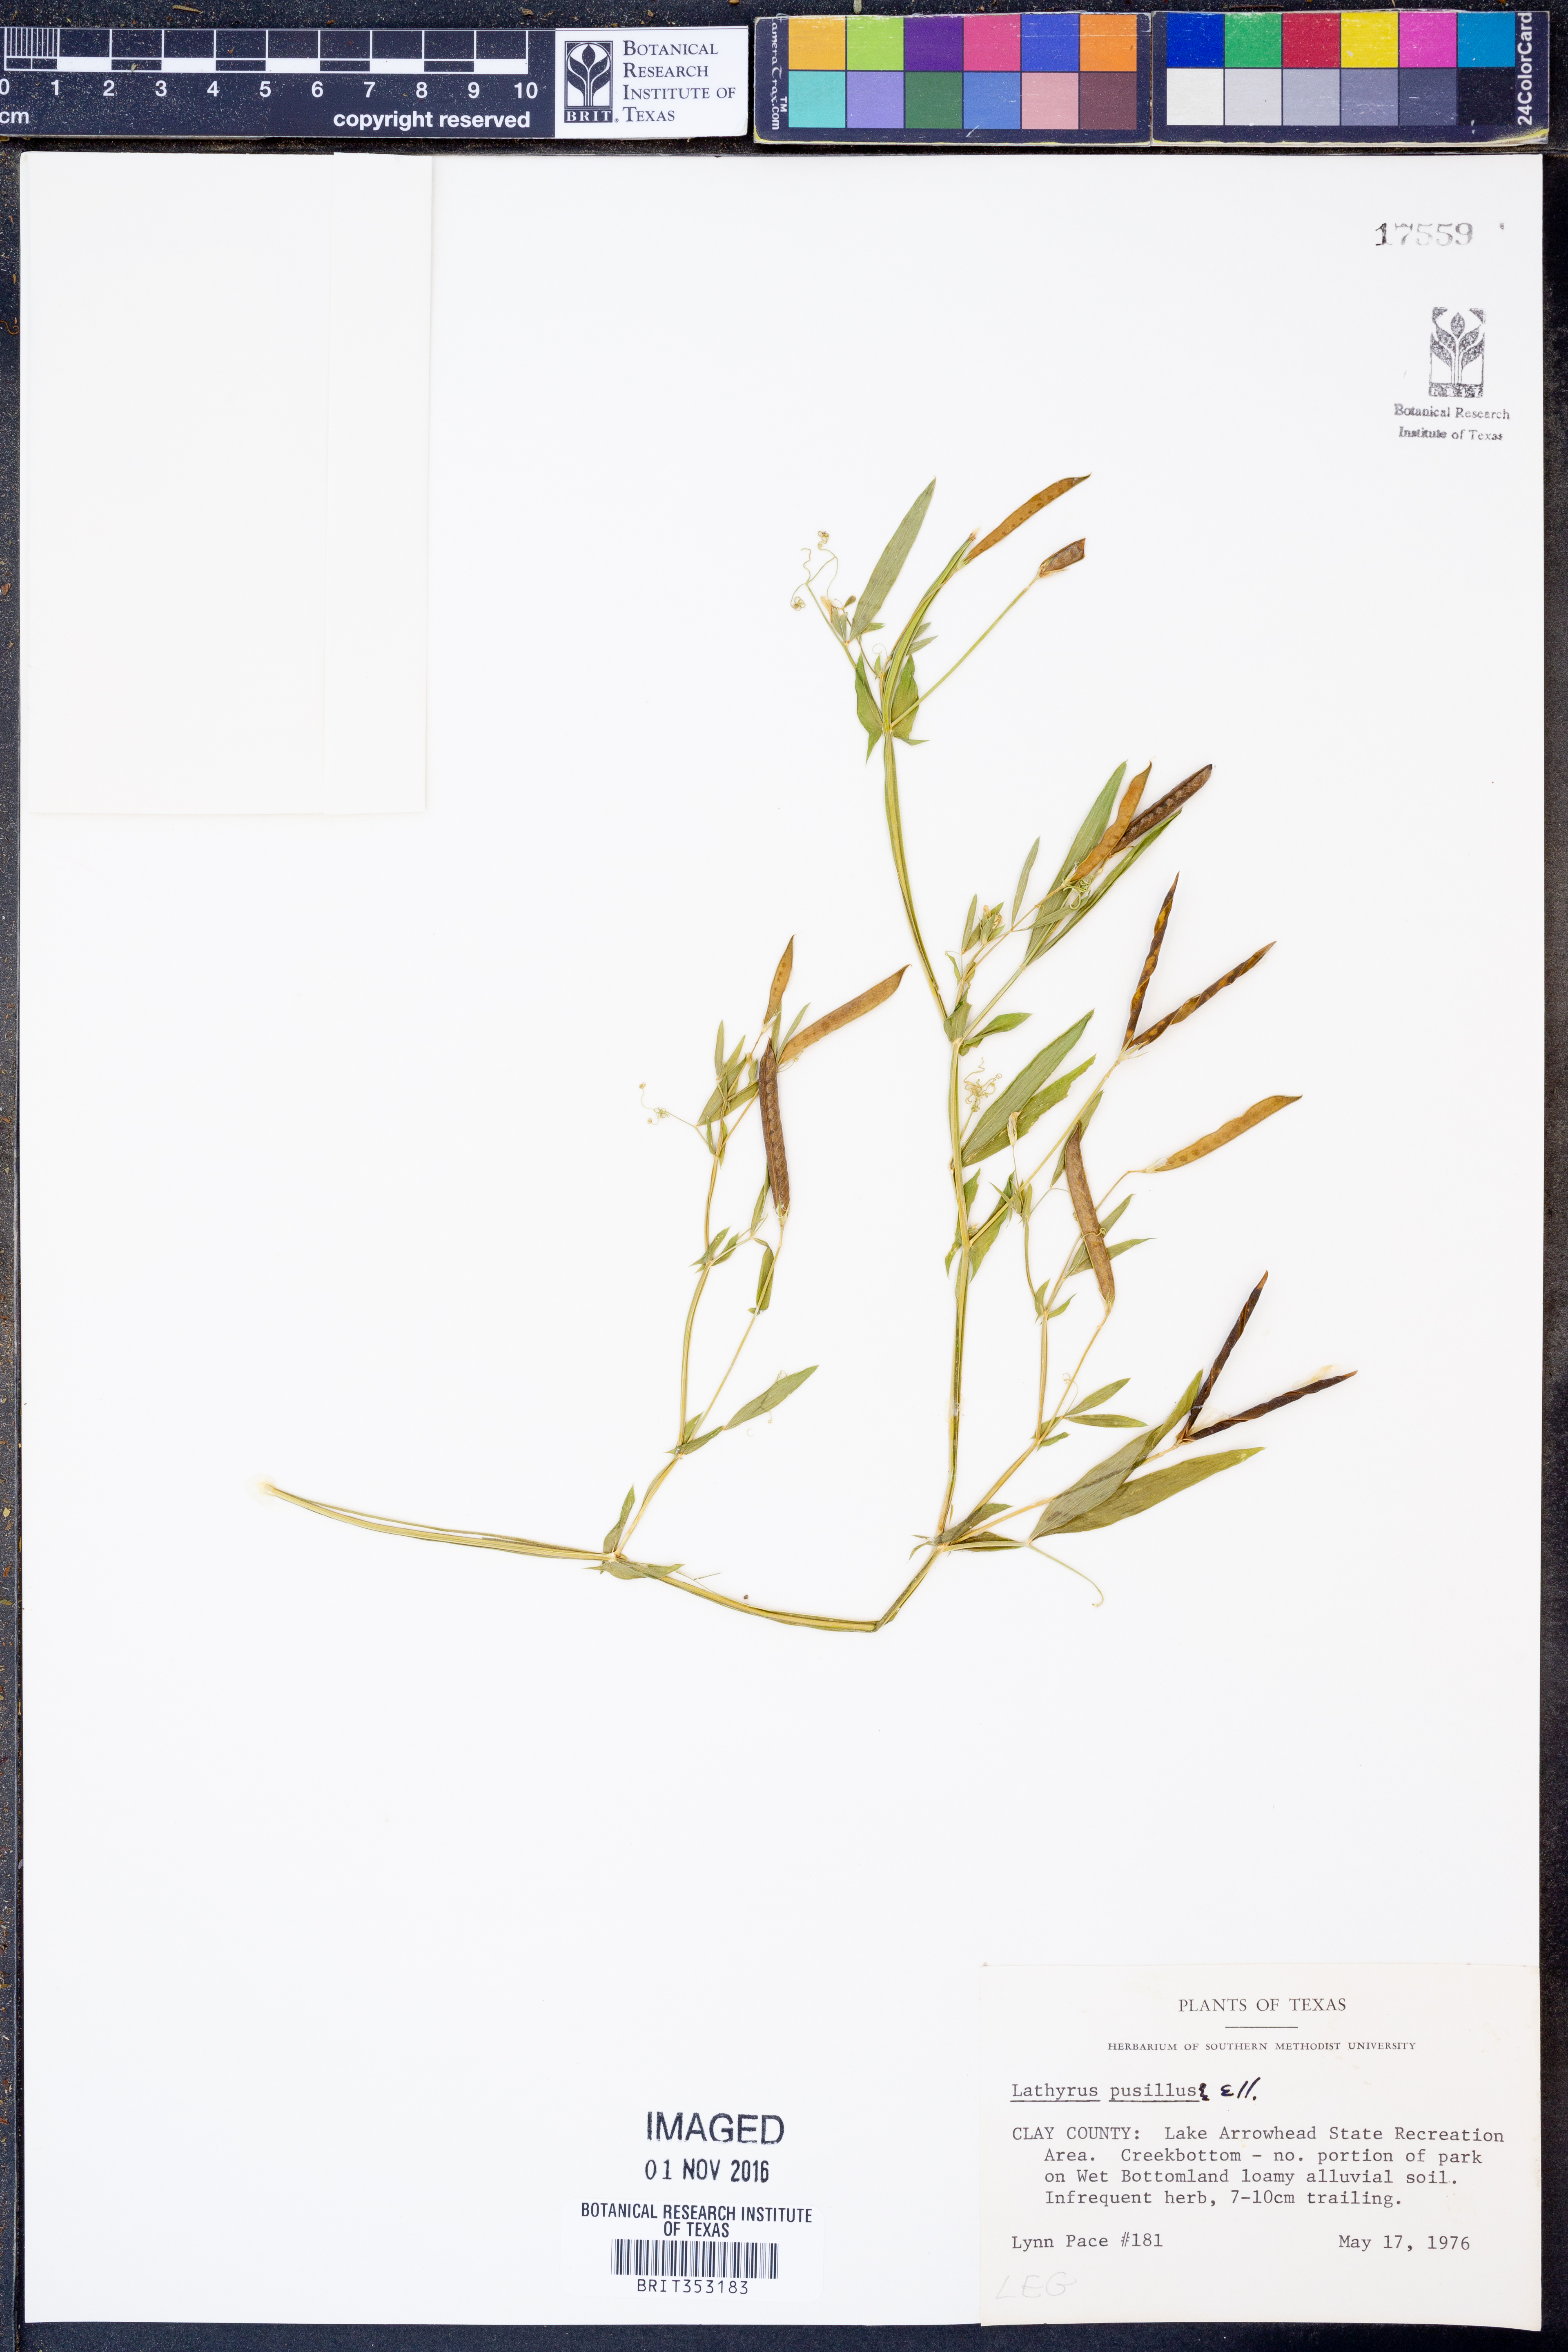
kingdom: Plantae
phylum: Tracheophyta
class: Magnoliopsida
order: Fabales
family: Fabaceae
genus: Lathyrus
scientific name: Lathyrus pusillus
